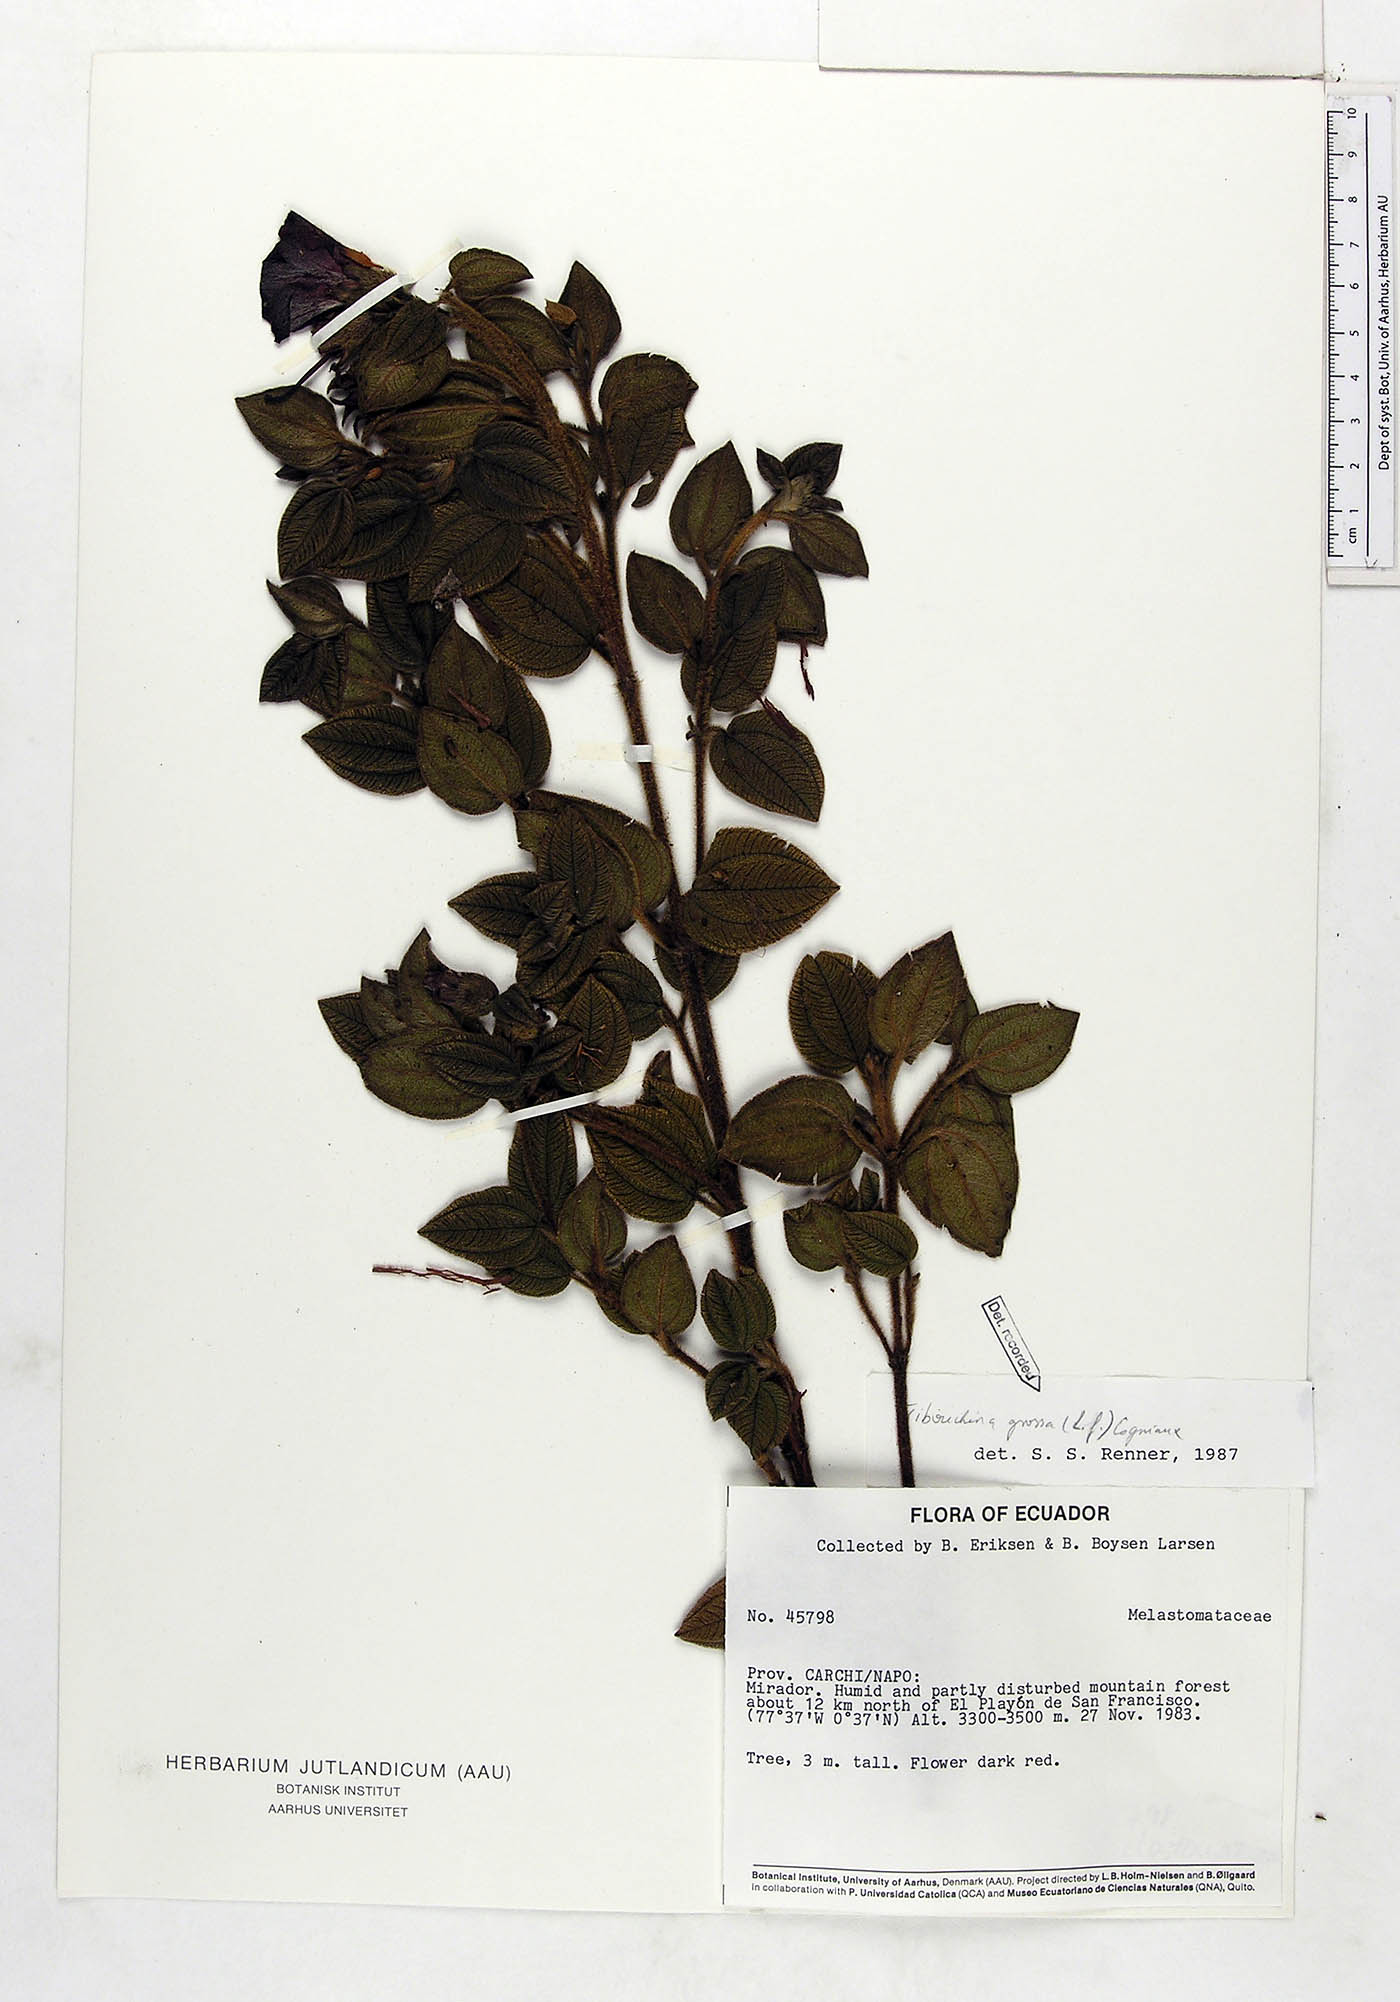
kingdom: Plantae
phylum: Tracheophyta
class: Magnoliopsida
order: Myrtales
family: Melastomataceae
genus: Chaetogastra
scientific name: Chaetogastra grossa
